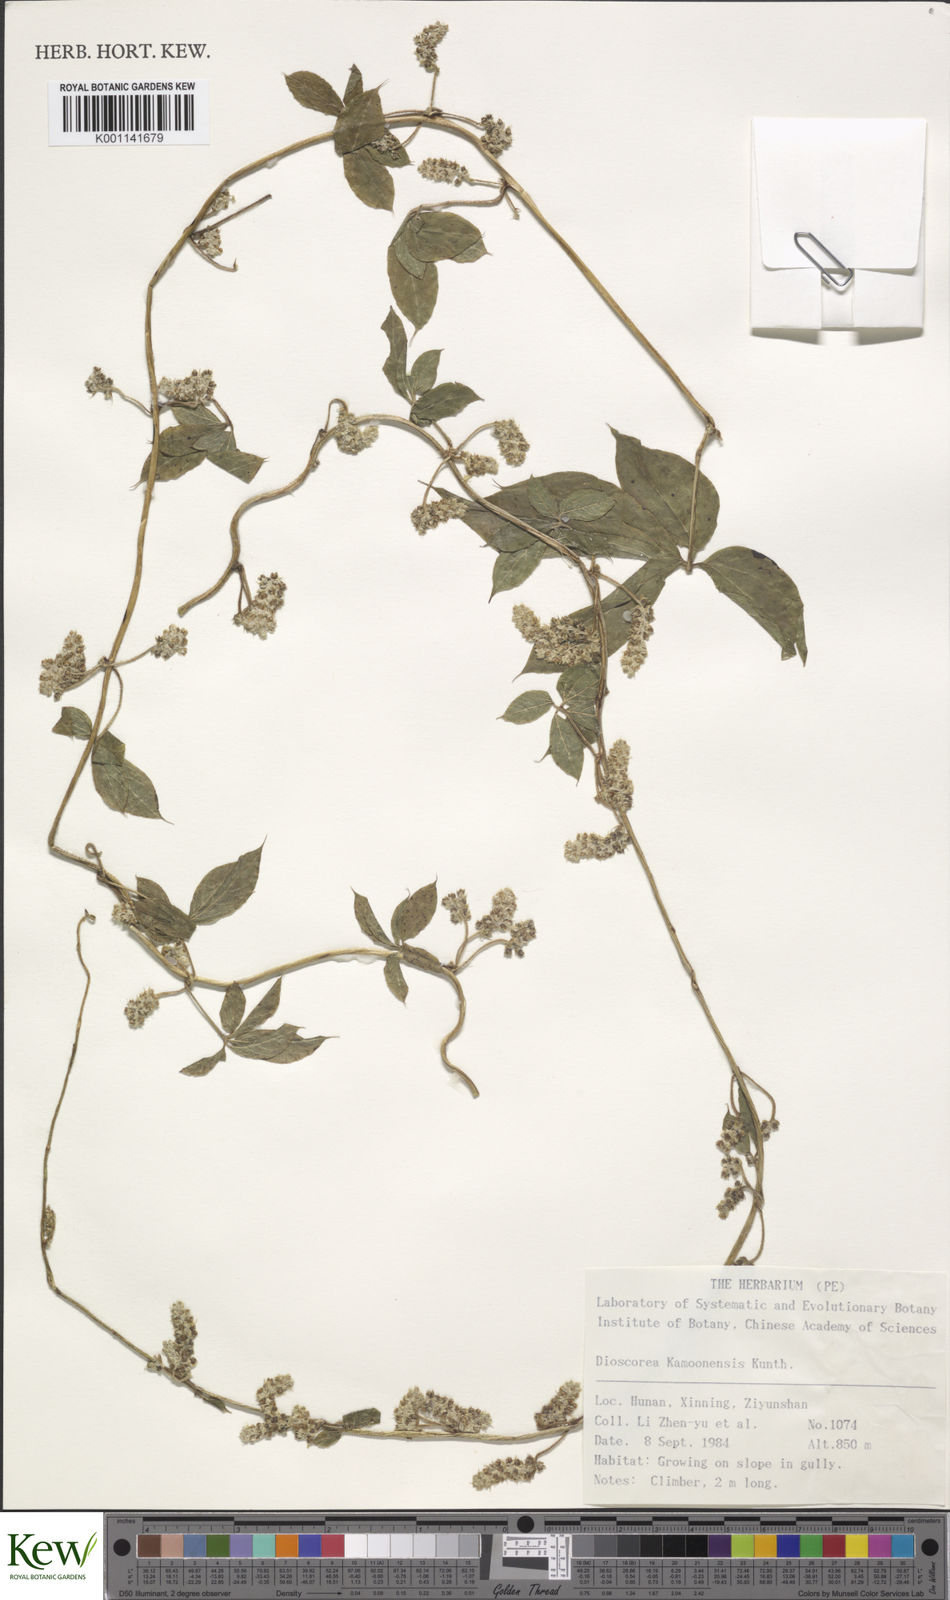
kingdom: Plantae
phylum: Tracheophyta
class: Liliopsida
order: Dioscoreales
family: Dioscoreaceae
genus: Dioscorea
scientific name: Dioscorea kamoonensis
